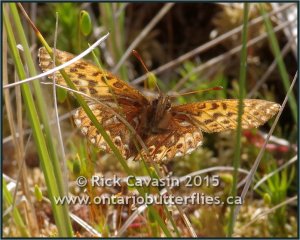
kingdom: Animalia
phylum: Arthropoda
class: Insecta
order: Lepidoptera
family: Nymphalidae
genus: Boloria
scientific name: Boloria freija
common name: Freija Fritillary
